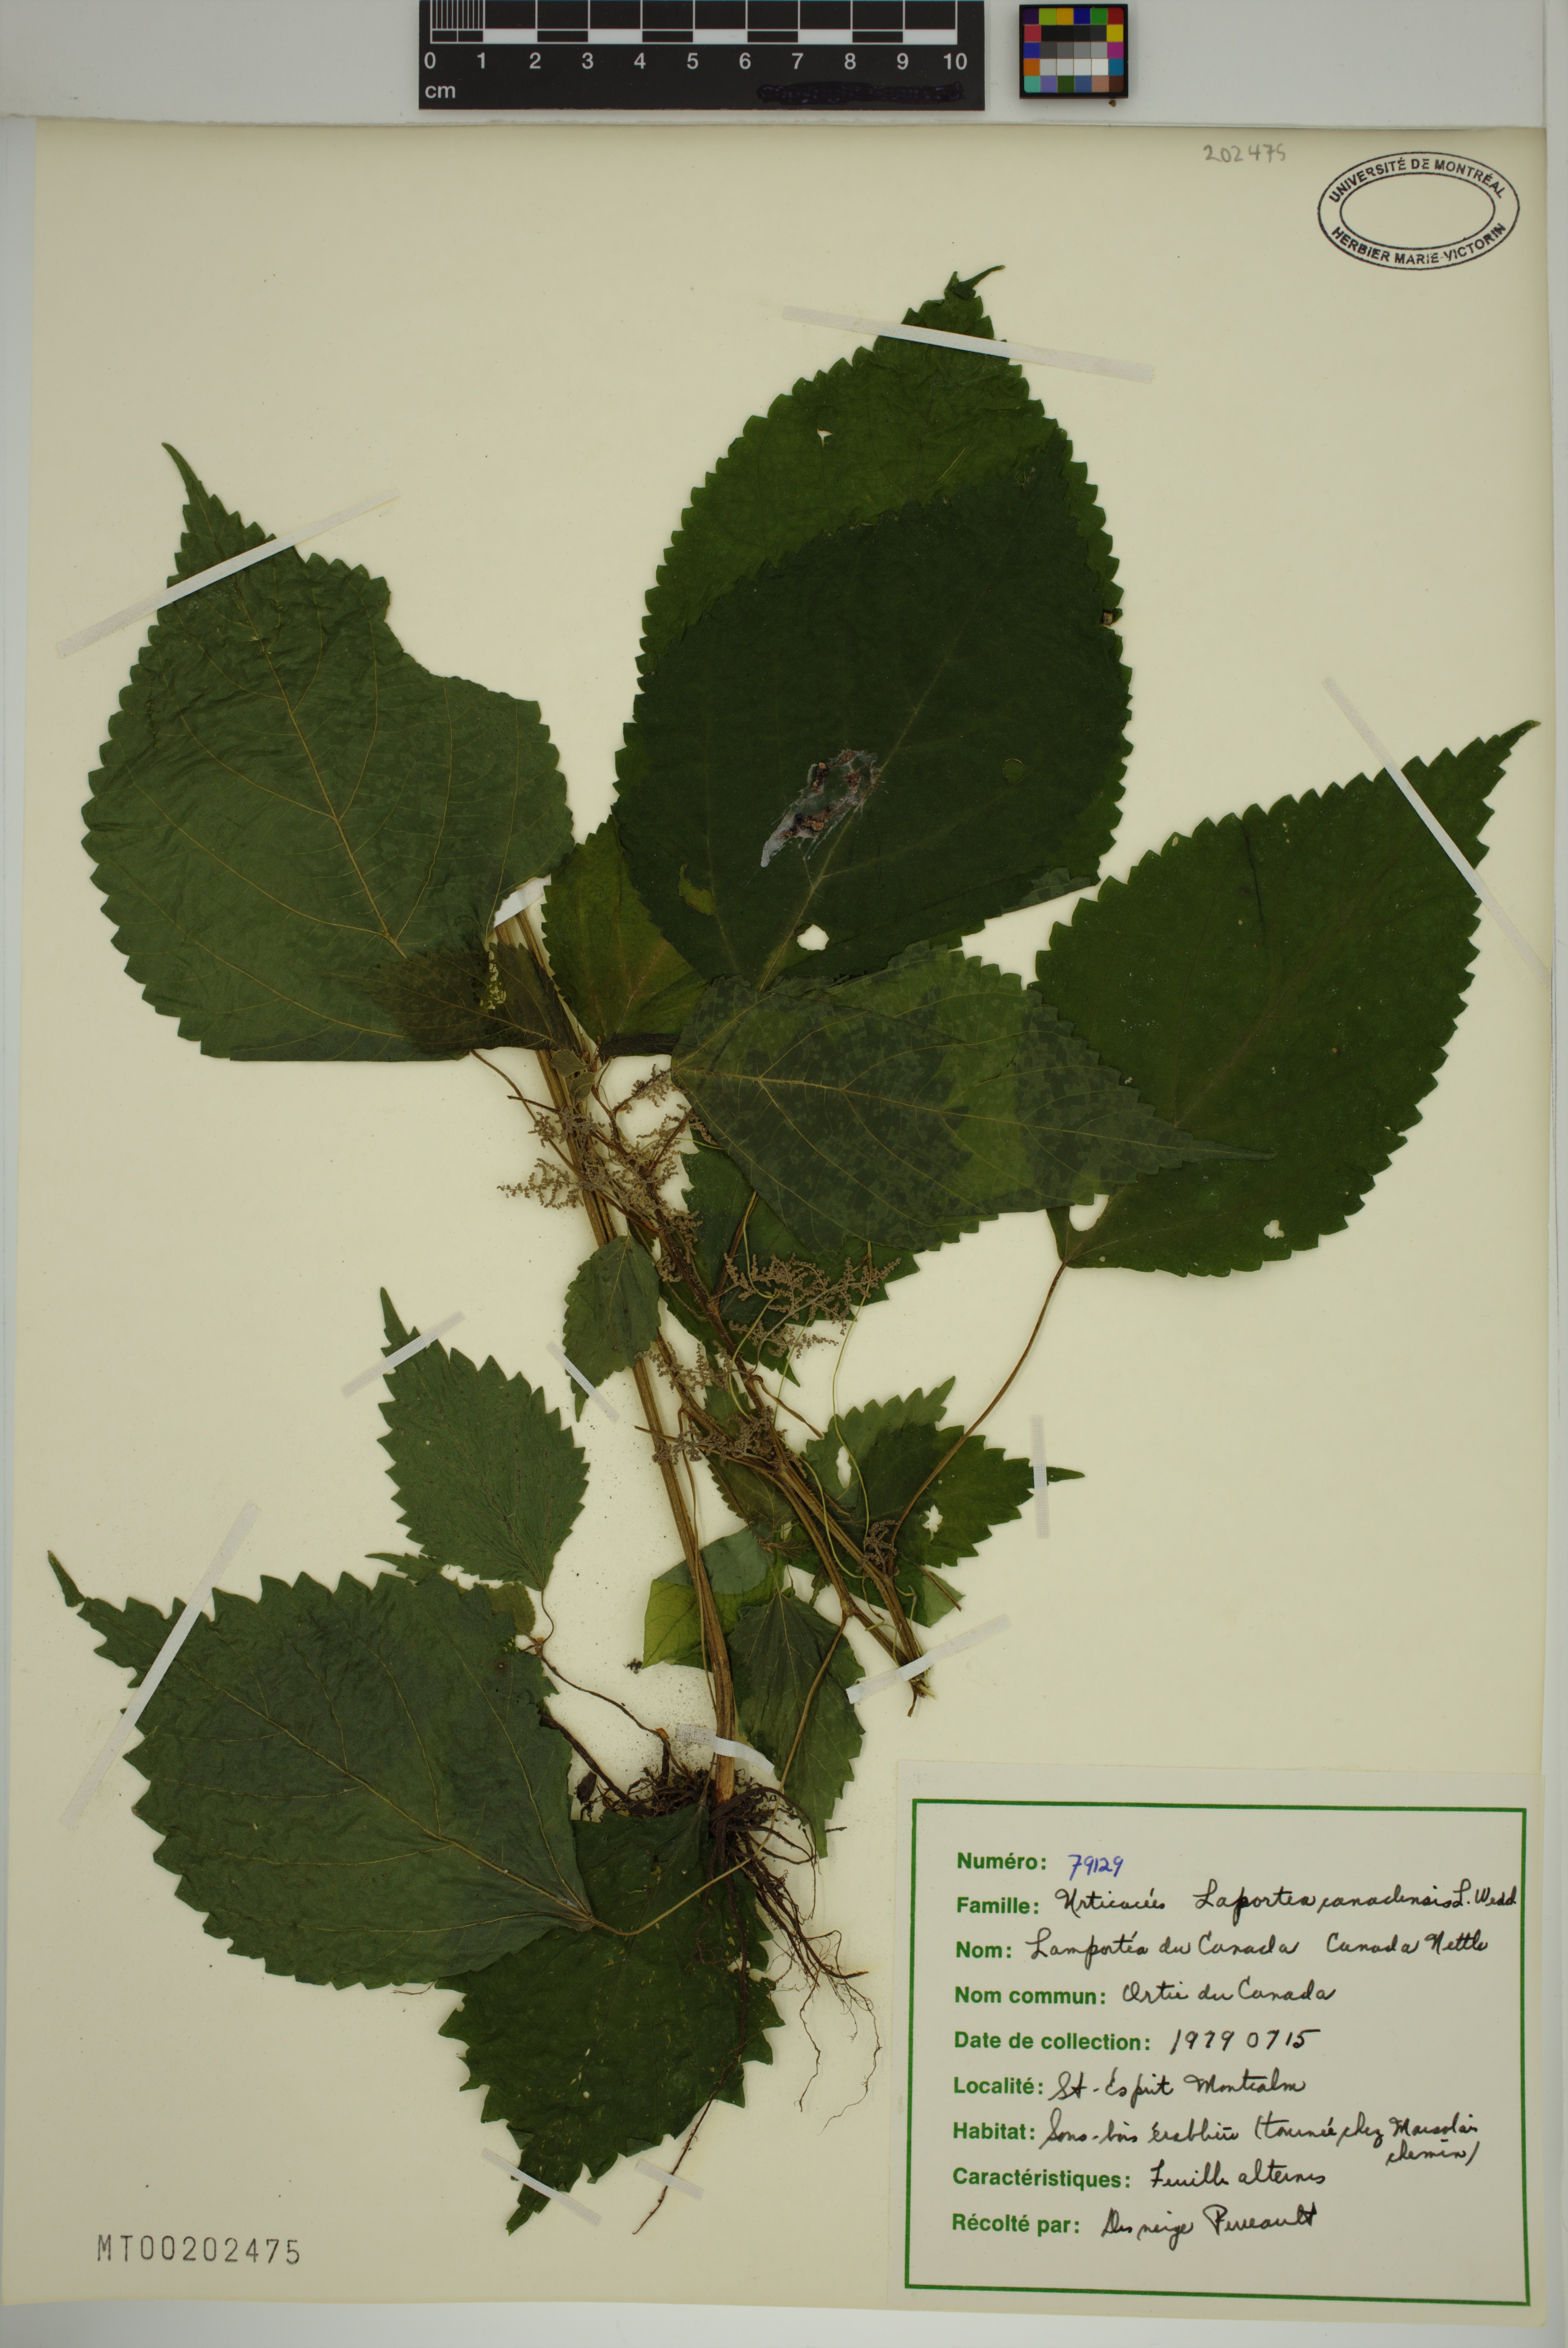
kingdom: Plantae
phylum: Tracheophyta
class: Magnoliopsida
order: Rosales
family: Urticaceae
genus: Laportea
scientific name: Laportea canadensis
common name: Canada nettle
